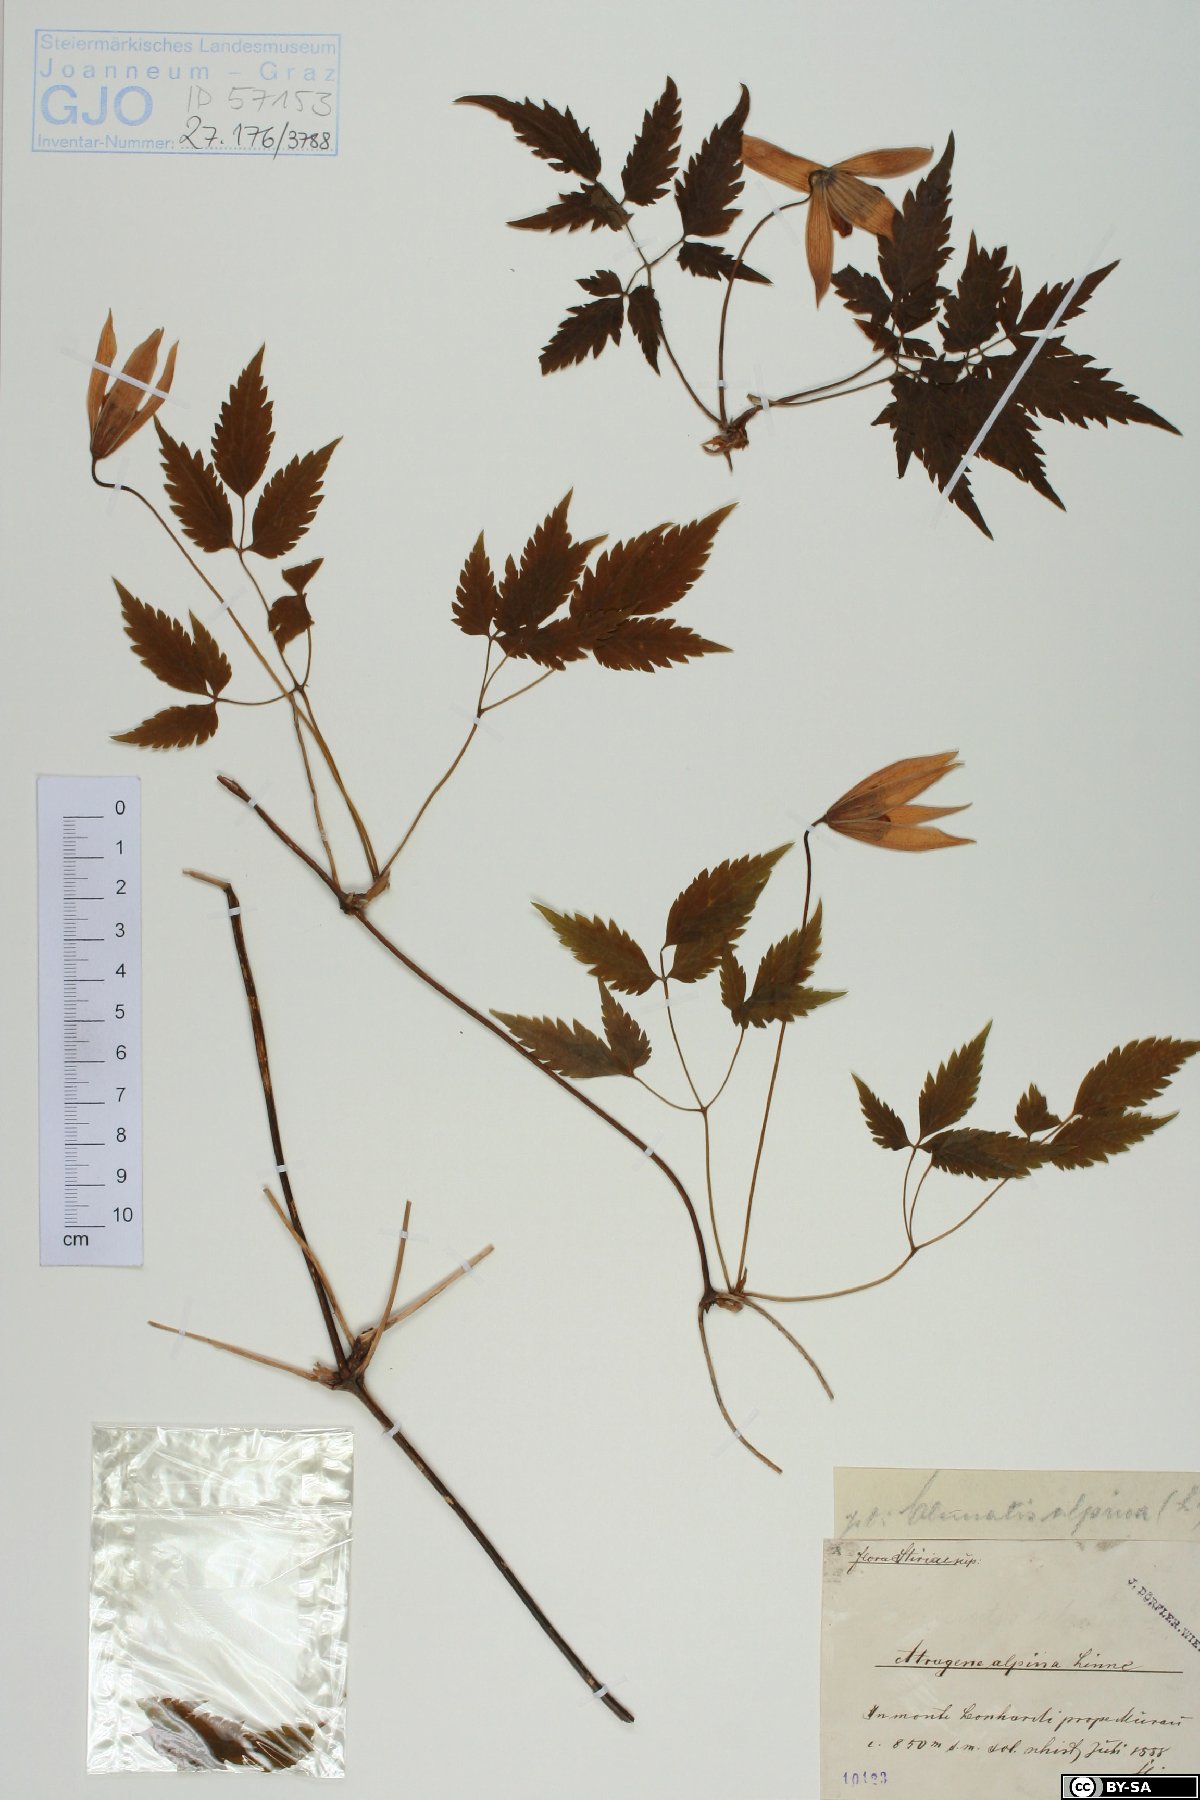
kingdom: Plantae
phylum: Tracheophyta
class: Magnoliopsida
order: Ranunculales
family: Ranunculaceae
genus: Clematis
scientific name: Clematis alpina
